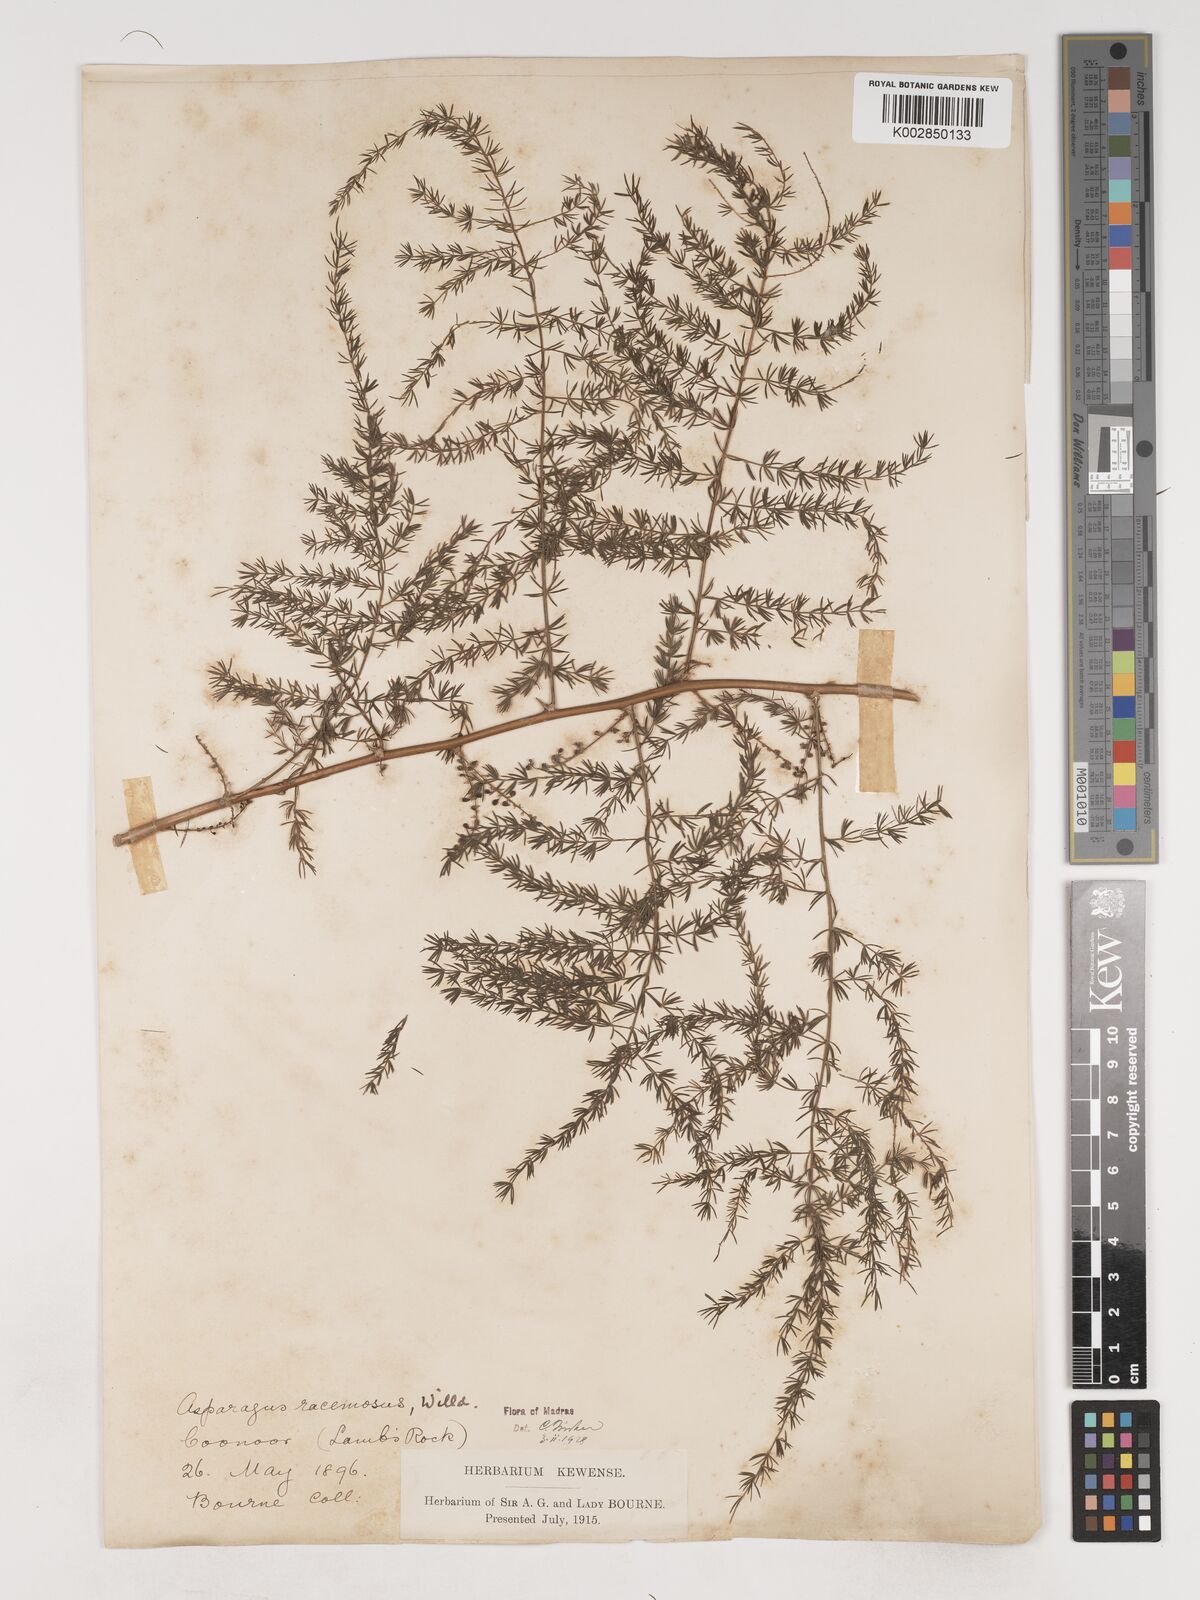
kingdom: Plantae
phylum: Tracheophyta
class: Liliopsida
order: Asparagales
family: Asparagaceae
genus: Asparagus
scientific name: Asparagus racemosus
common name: Asparagus-fern
